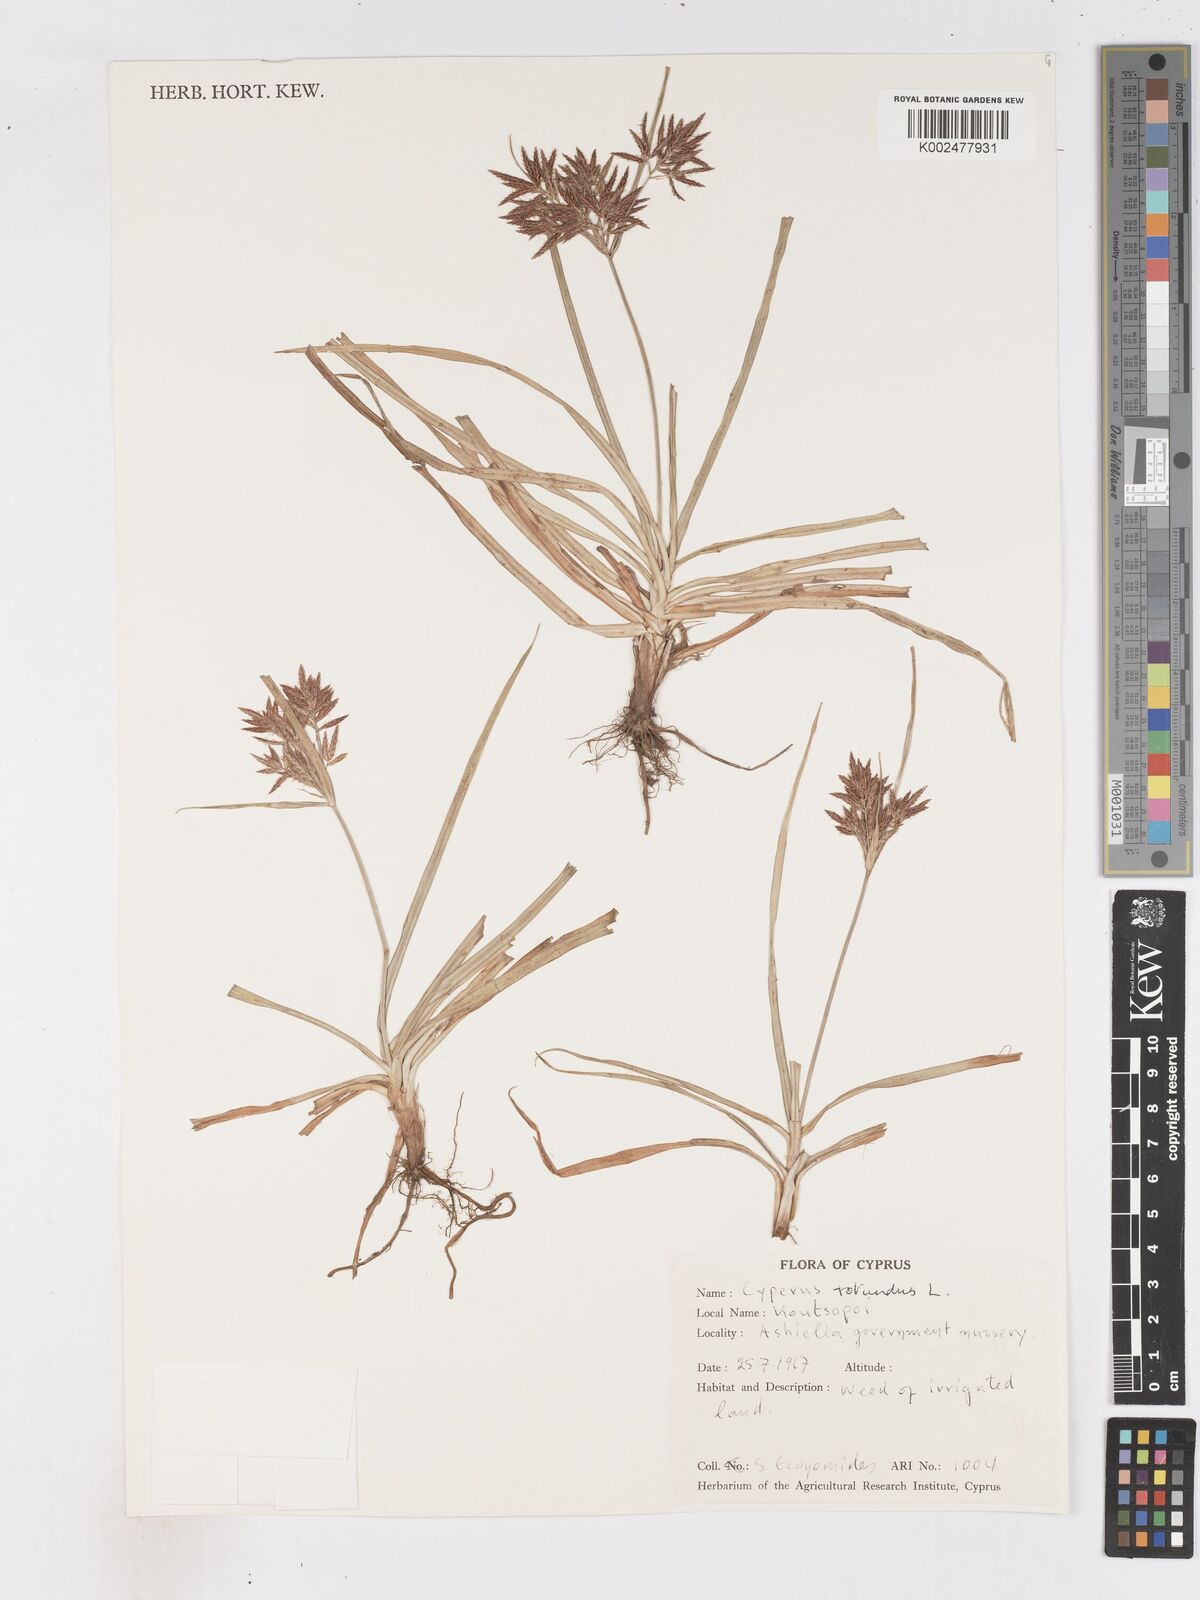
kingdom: Plantae
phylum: Tracheophyta
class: Liliopsida
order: Poales
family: Cyperaceae
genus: Cyperus
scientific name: Cyperus rotundus
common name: Nutgrass
